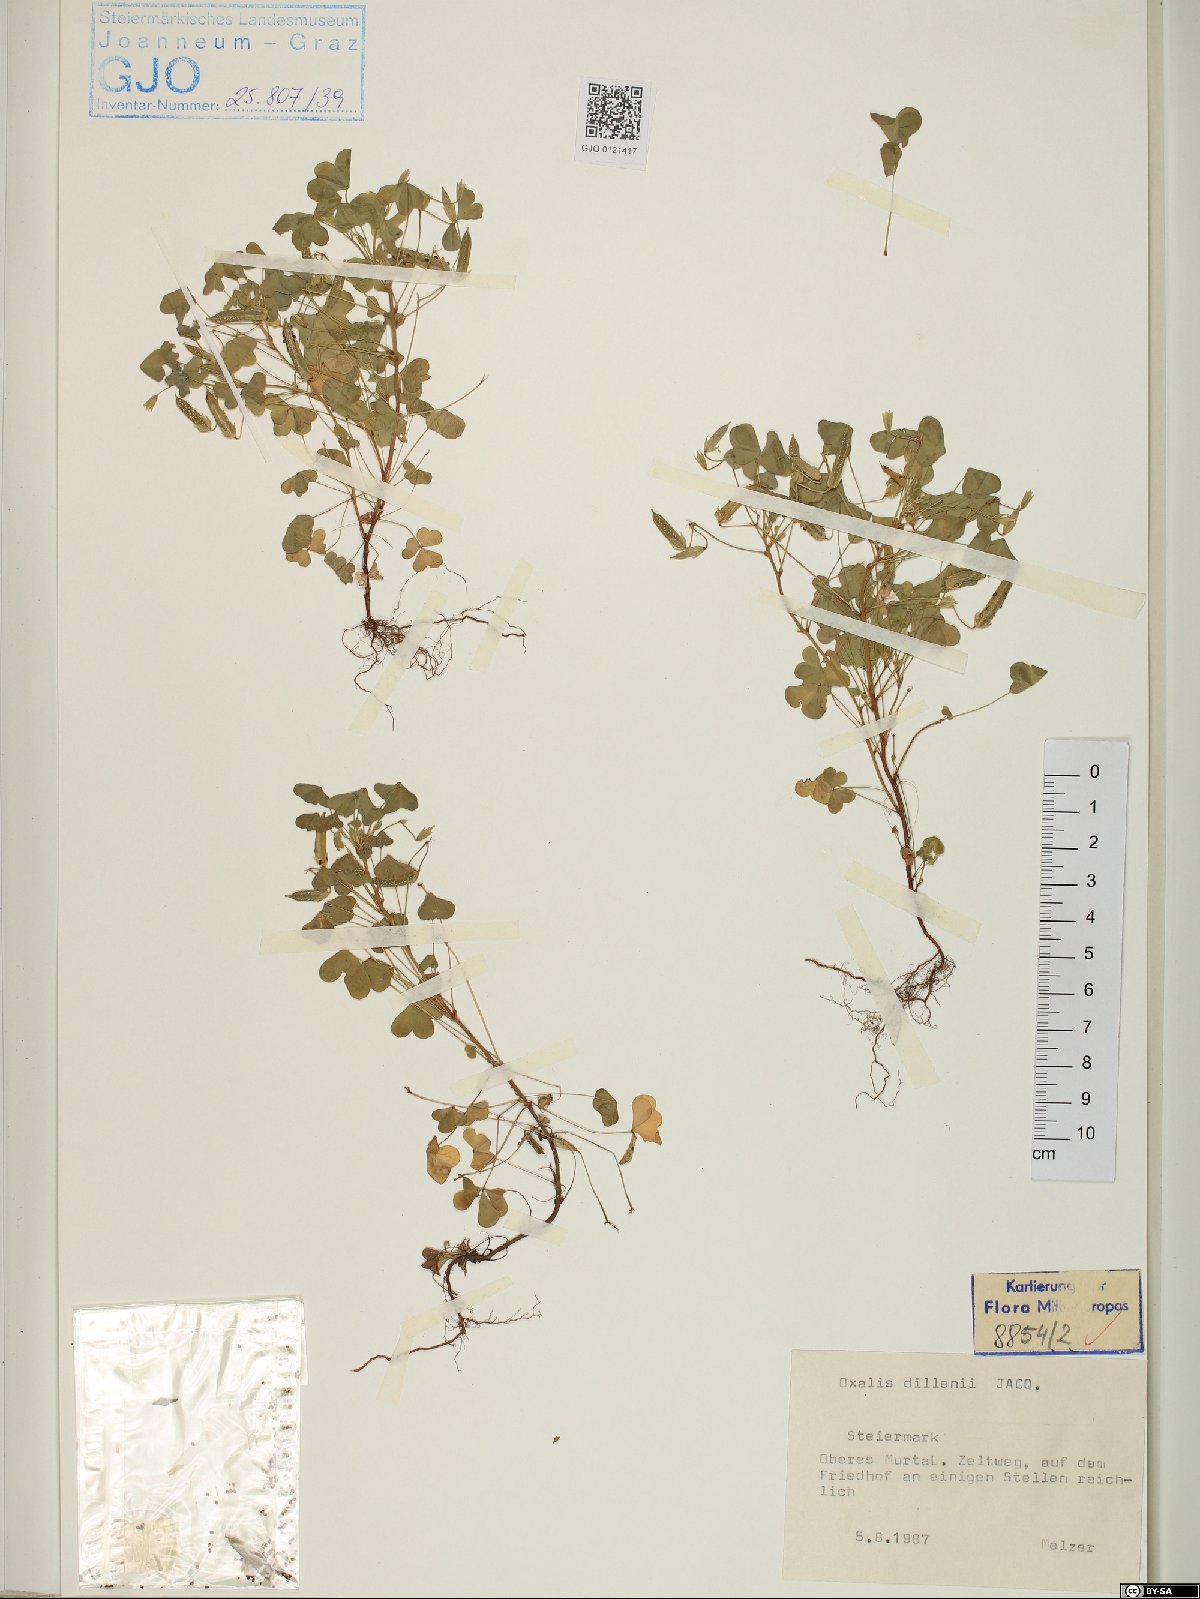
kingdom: Plantae
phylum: Tracheophyta
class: Magnoliopsida
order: Oxalidales
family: Oxalidaceae
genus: Oxalis
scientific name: Oxalis dillenii
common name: Sussex yellow-sorrel
